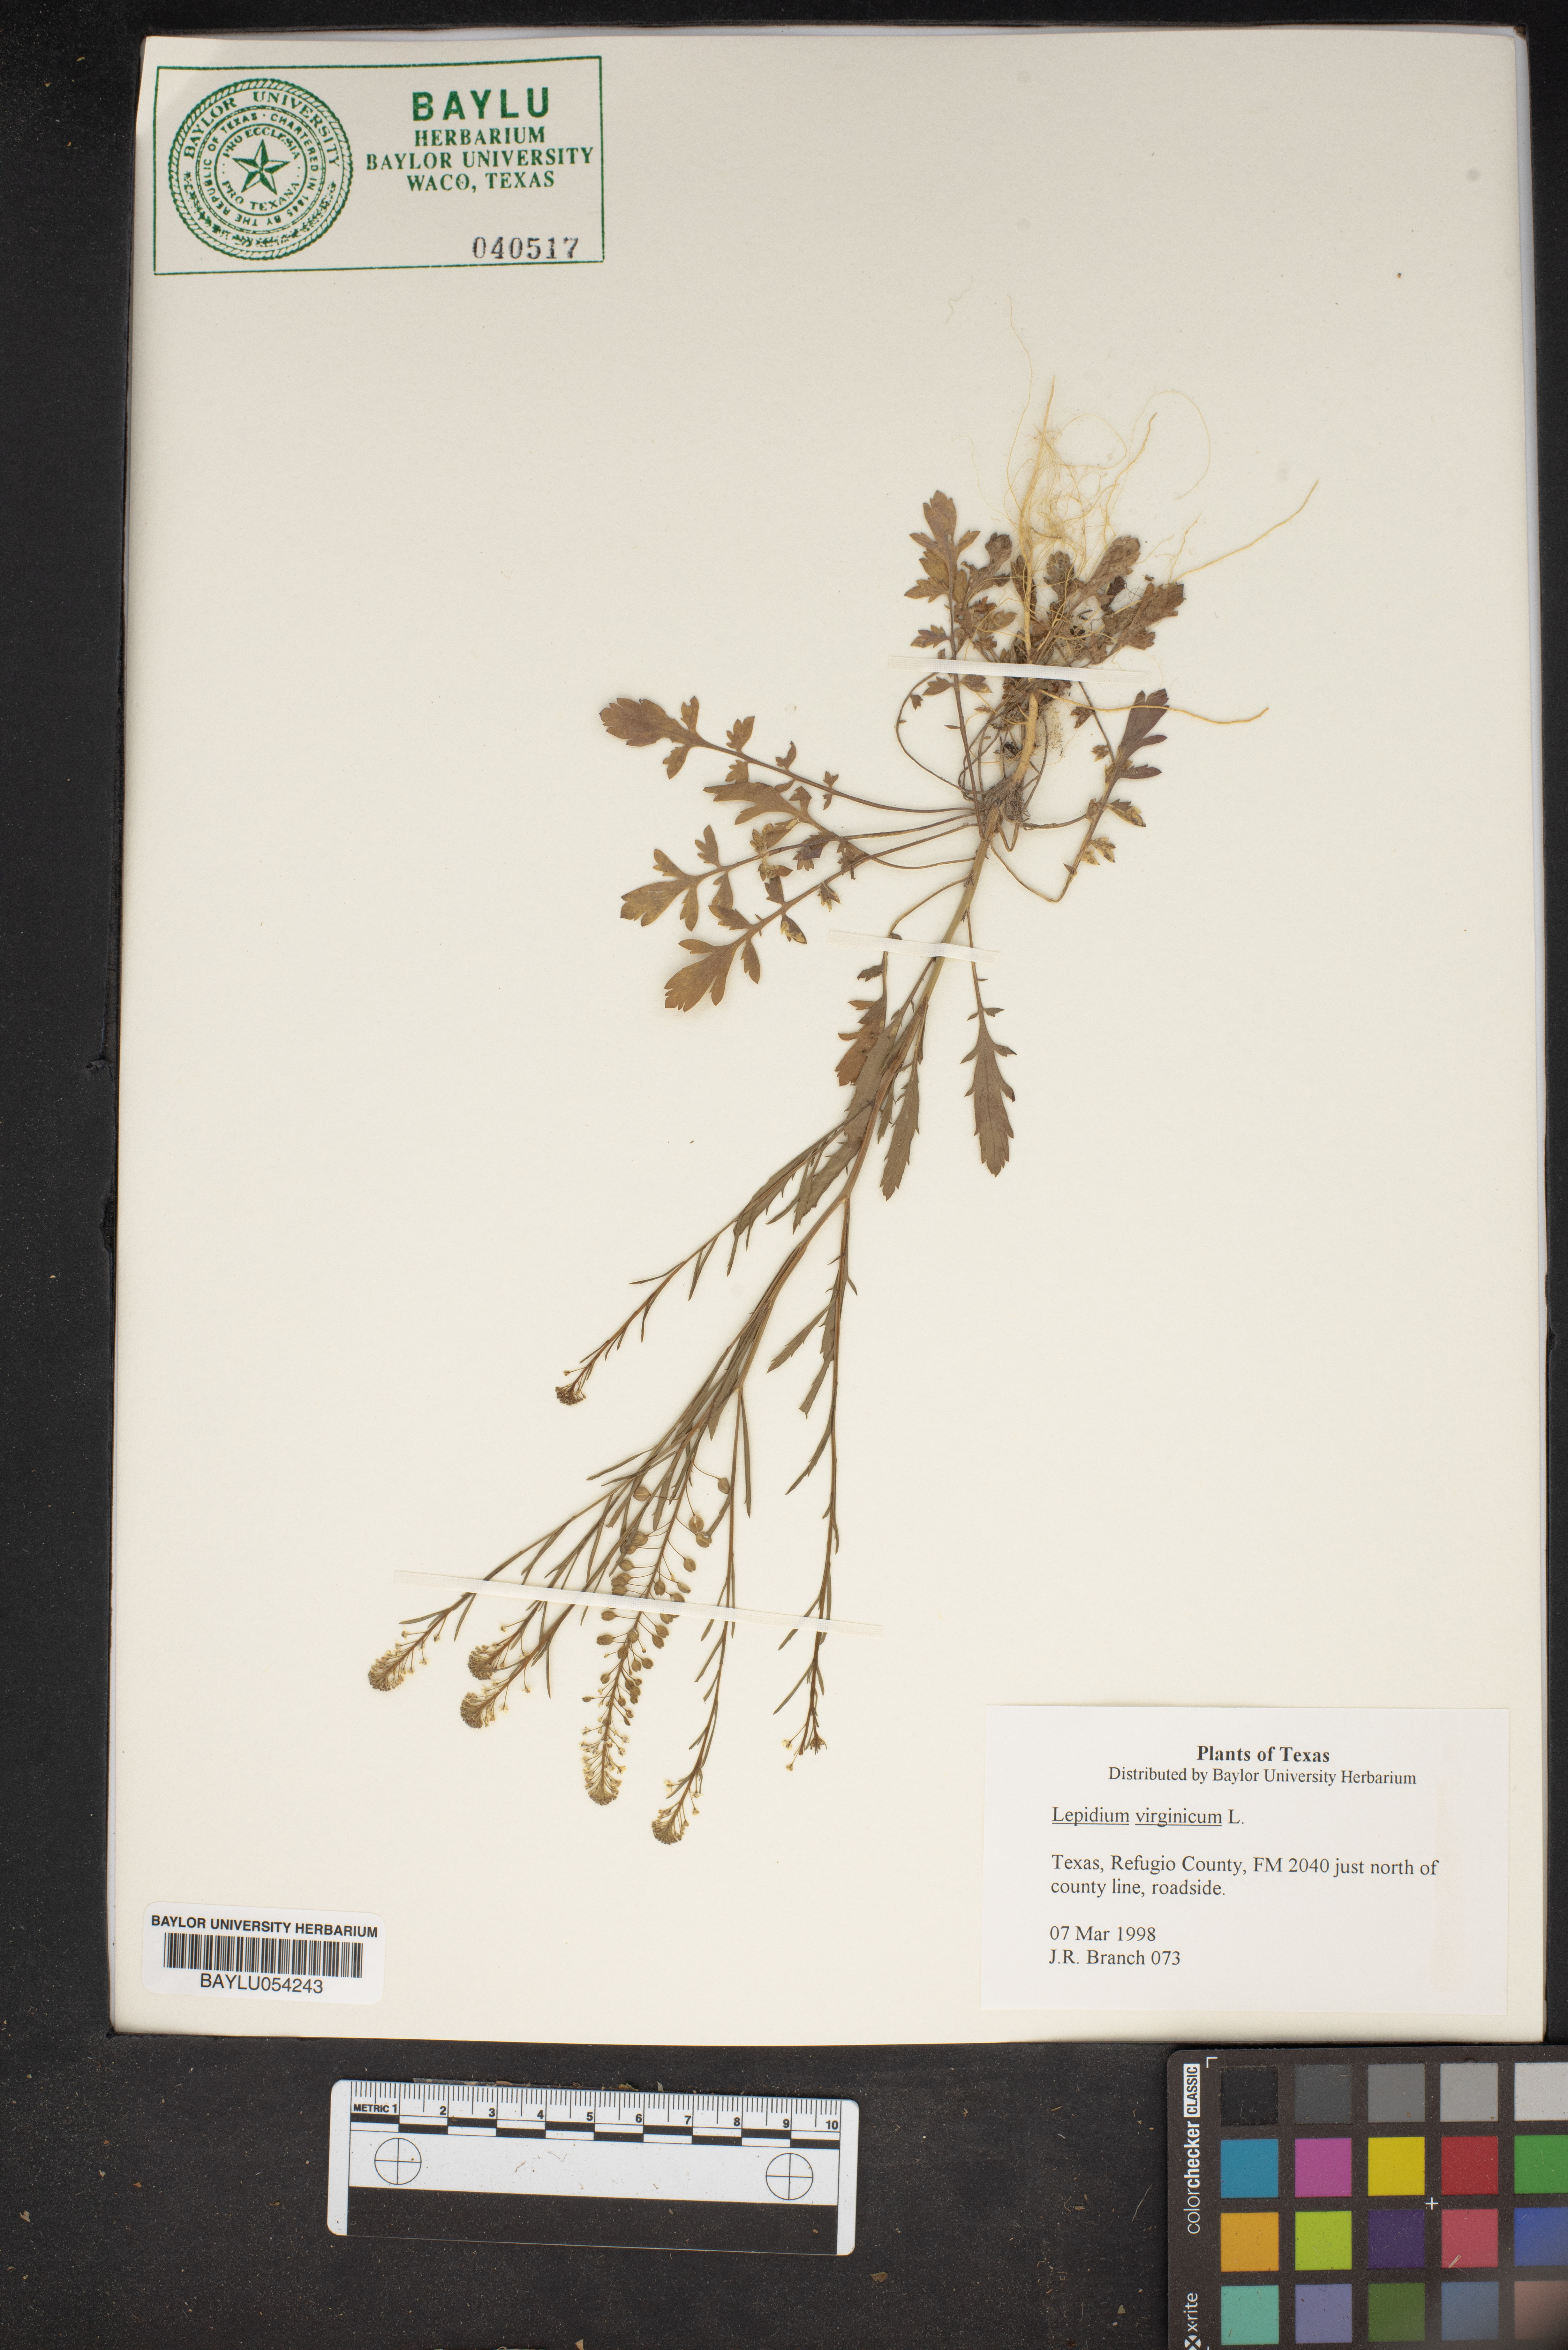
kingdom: Plantae
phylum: Tracheophyta
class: Magnoliopsida
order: Brassicales
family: Brassicaceae
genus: Lepidium
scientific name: Lepidium virginicum
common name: Least pepperwort
